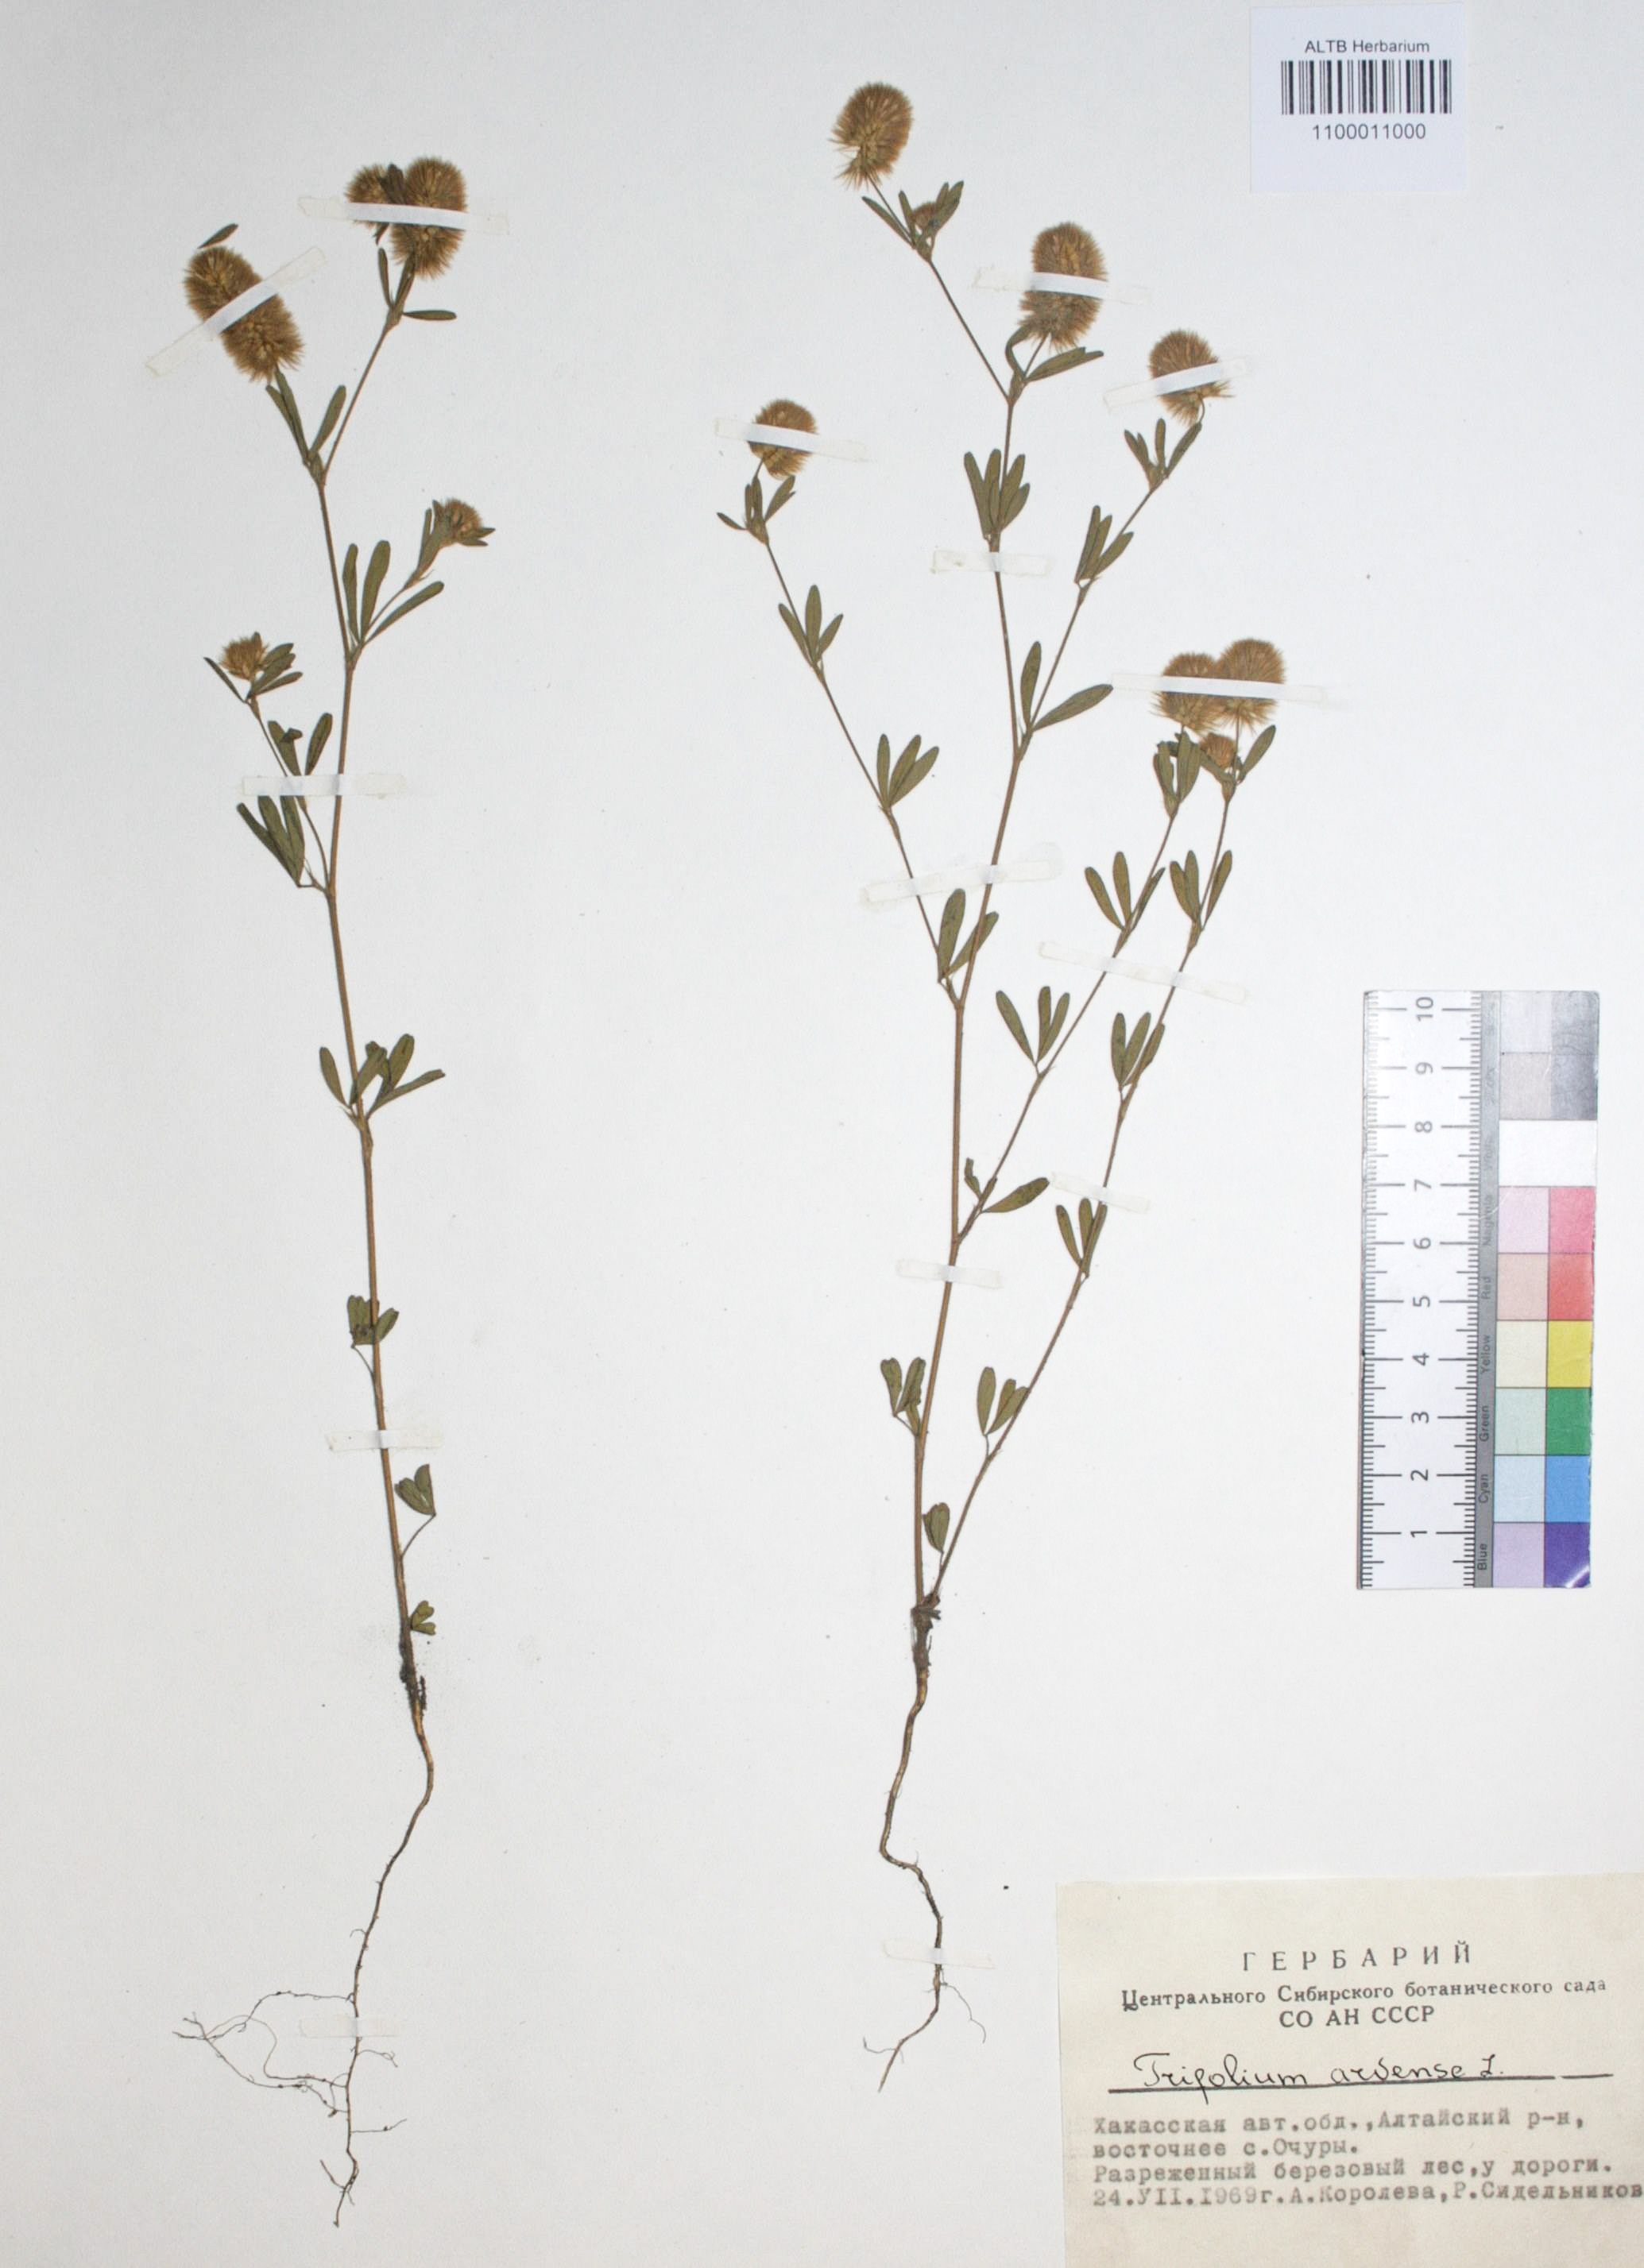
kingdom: Plantae
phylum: Tracheophyta
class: Magnoliopsida
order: Fabales
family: Fabaceae
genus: Trifolium
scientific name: Trifolium arvense
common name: Hare's-foot clover
